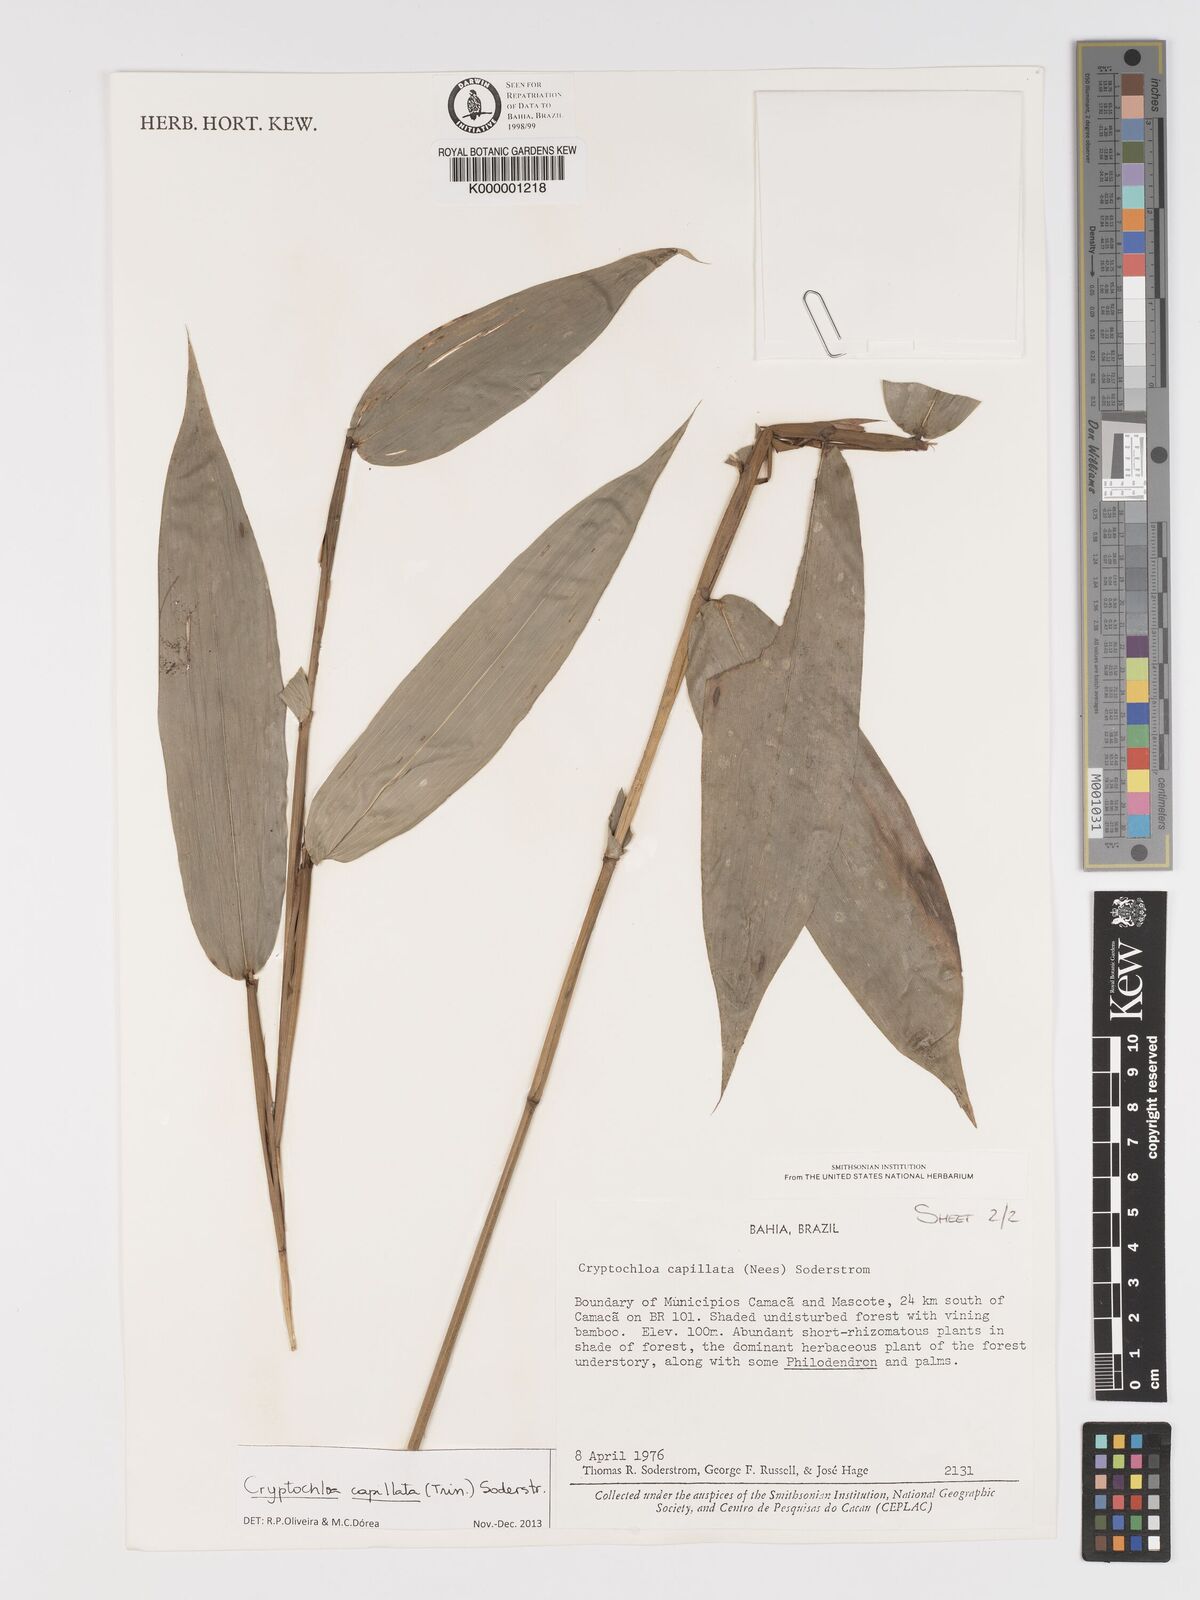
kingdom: Plantae
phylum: Tracheophyta
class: Liliopsida
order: Poales
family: Poaceae
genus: Cryptochloa
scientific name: Cryptochloa capillata
